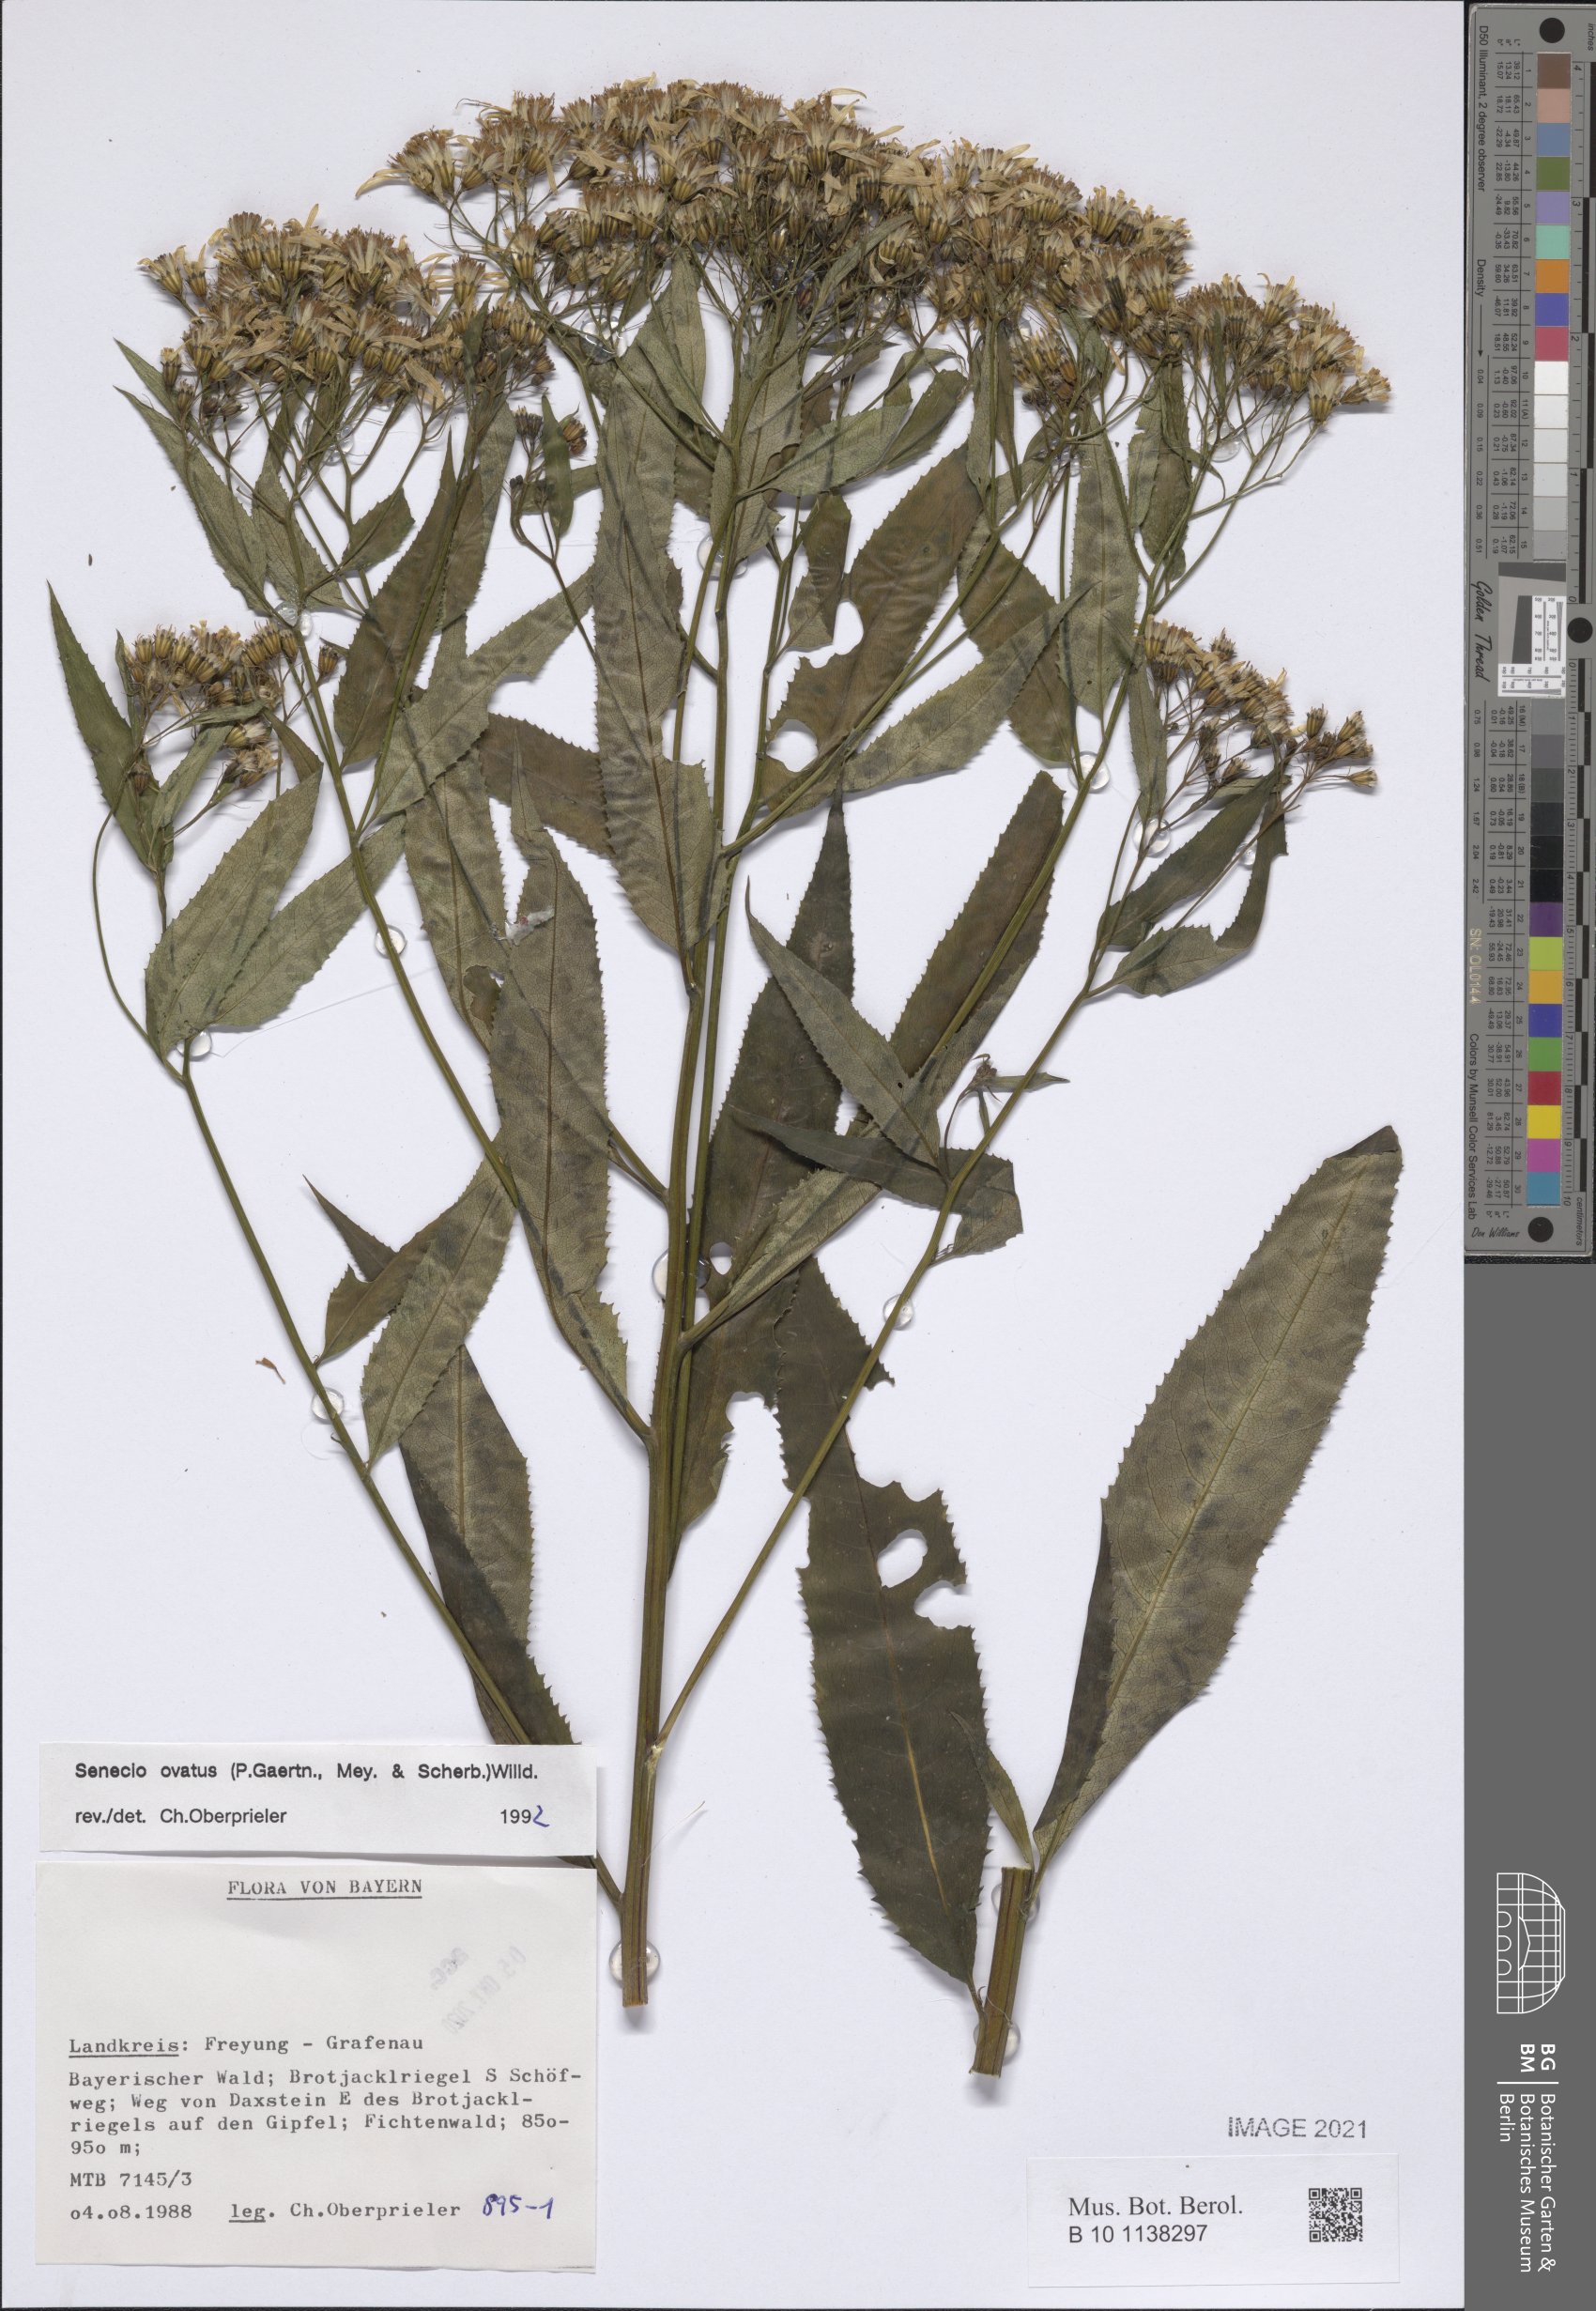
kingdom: Plantae
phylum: Tracheophyta
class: Magnoliopsida
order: Asterales
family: Asteraceae
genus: Senecio
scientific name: Senecio ovatus
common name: Wood ragwort
